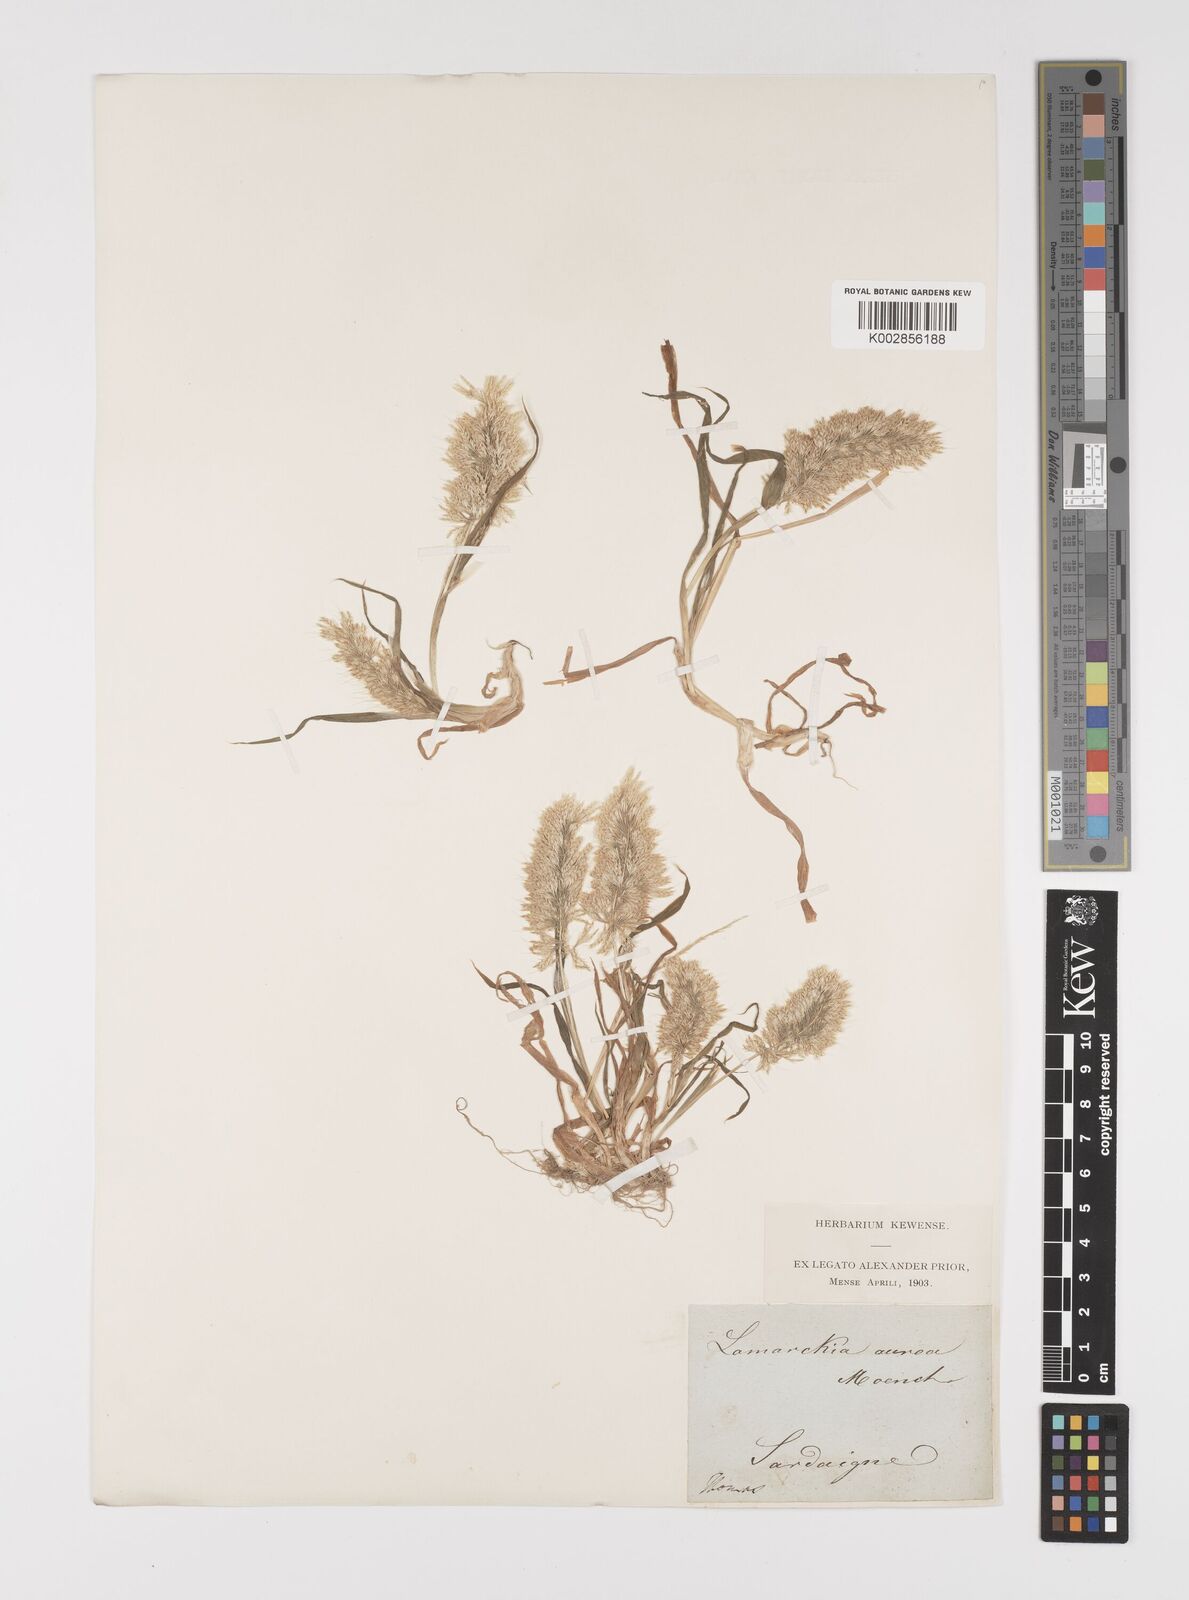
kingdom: Plantae
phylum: Tracheophyta
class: Liliopsida
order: Poales
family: Poaceae
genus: Lamarckia
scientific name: Lamarckia aurea
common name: Golden dog's-tail
